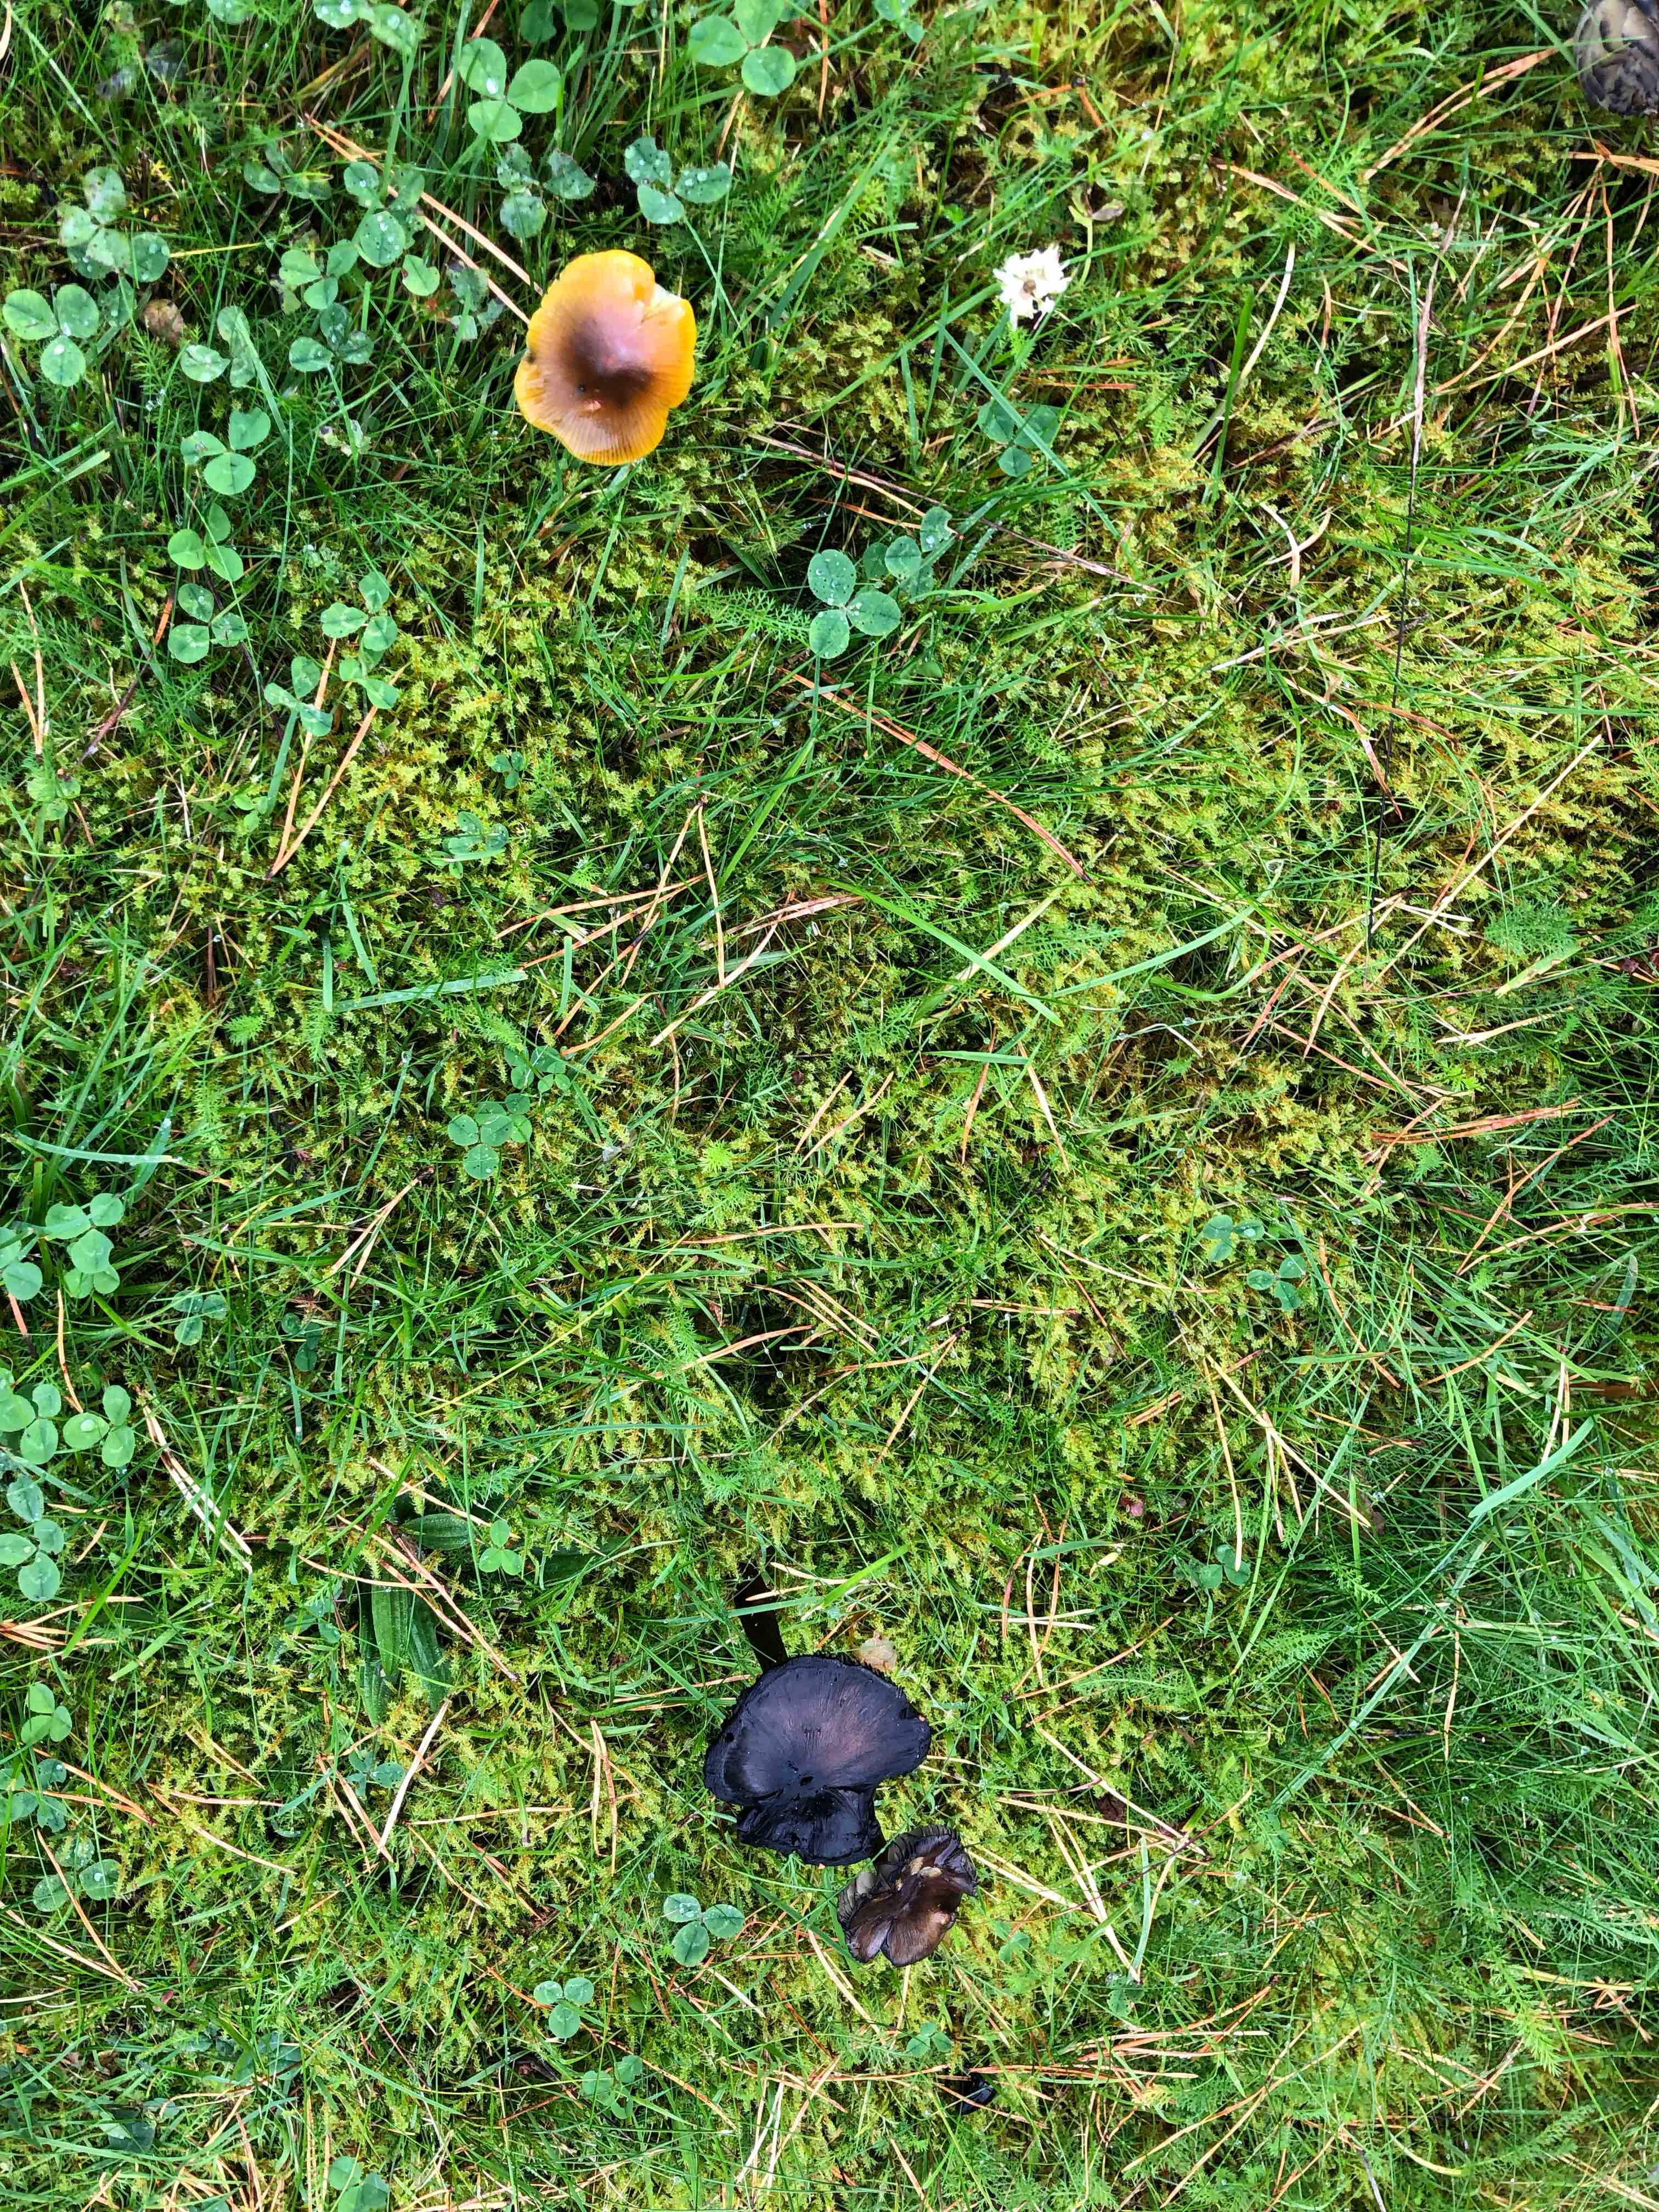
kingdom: Fungi
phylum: Basidiomycota
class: Agaricomycetes
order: Agaricales
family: Hygrophoraceae
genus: Hygrocybe
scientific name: Hygrocybe conica
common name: kegle-vokshat
